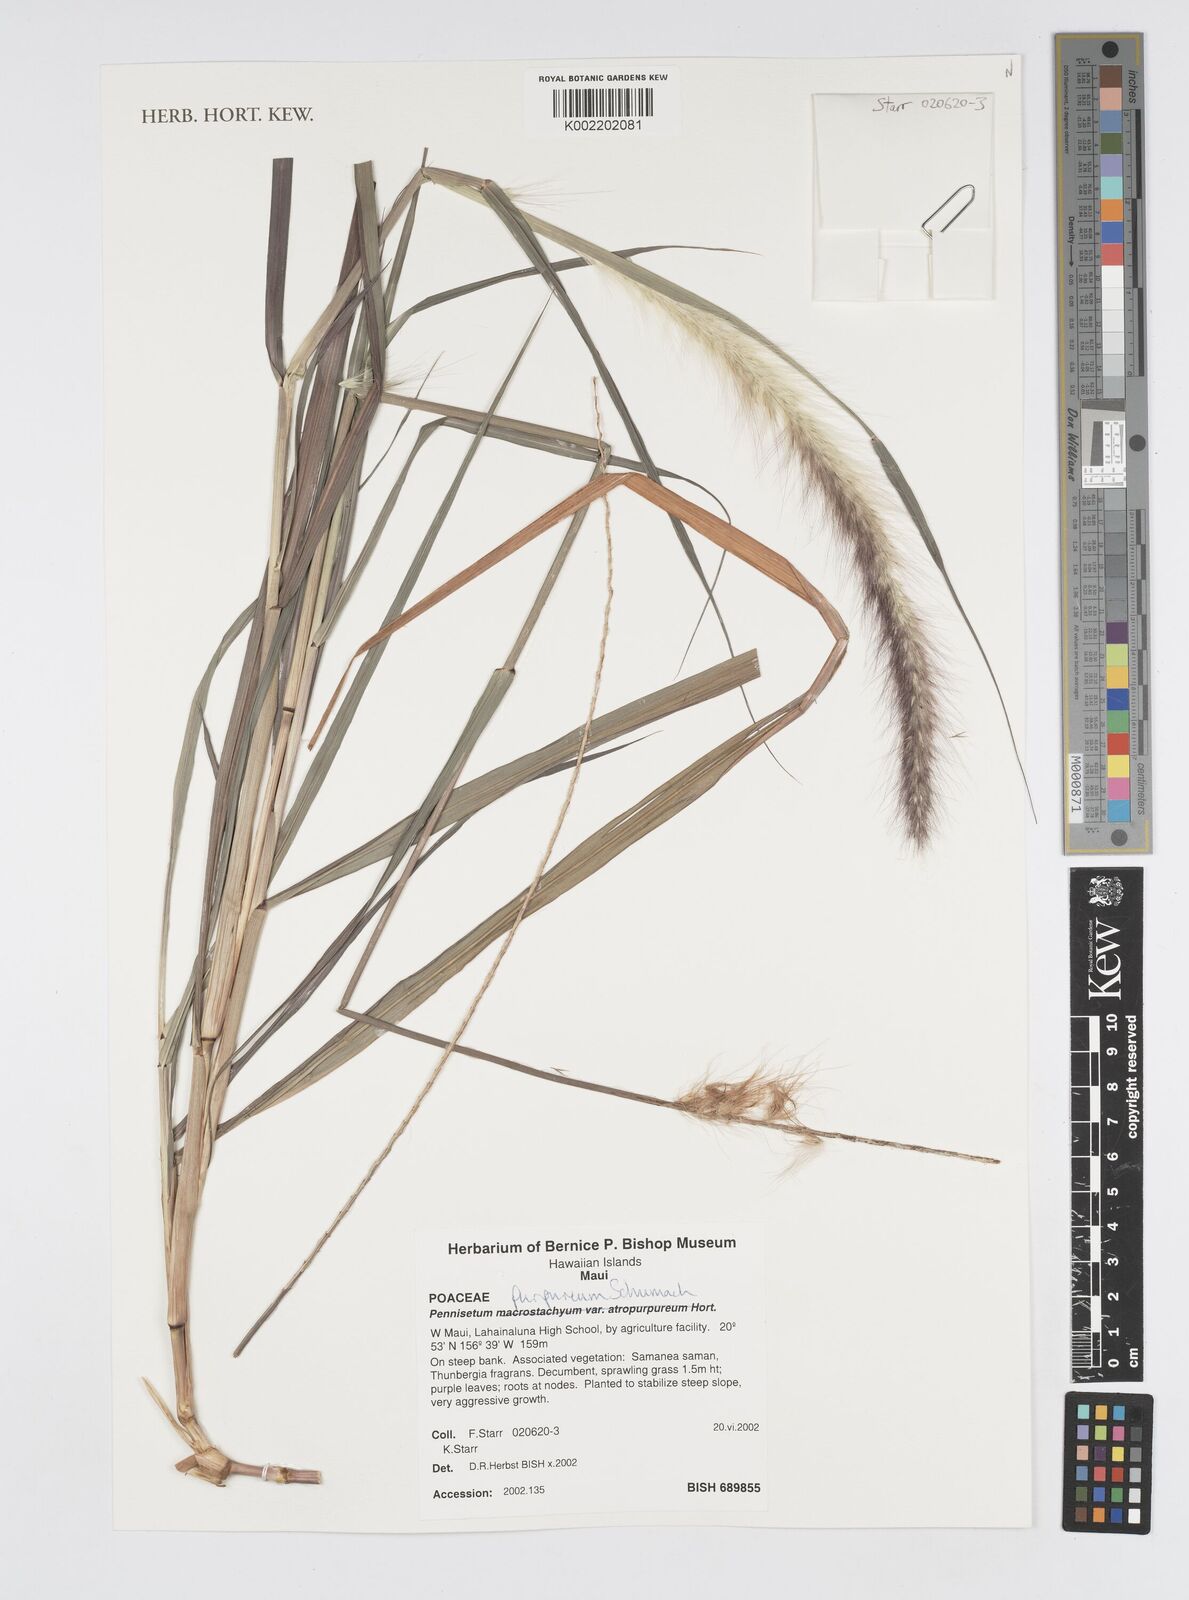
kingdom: Plantae
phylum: Tracheophyta
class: Liliopsida
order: Poales
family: Poaceae
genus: Cenchrus
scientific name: Cenchrus Pennisetum spec
